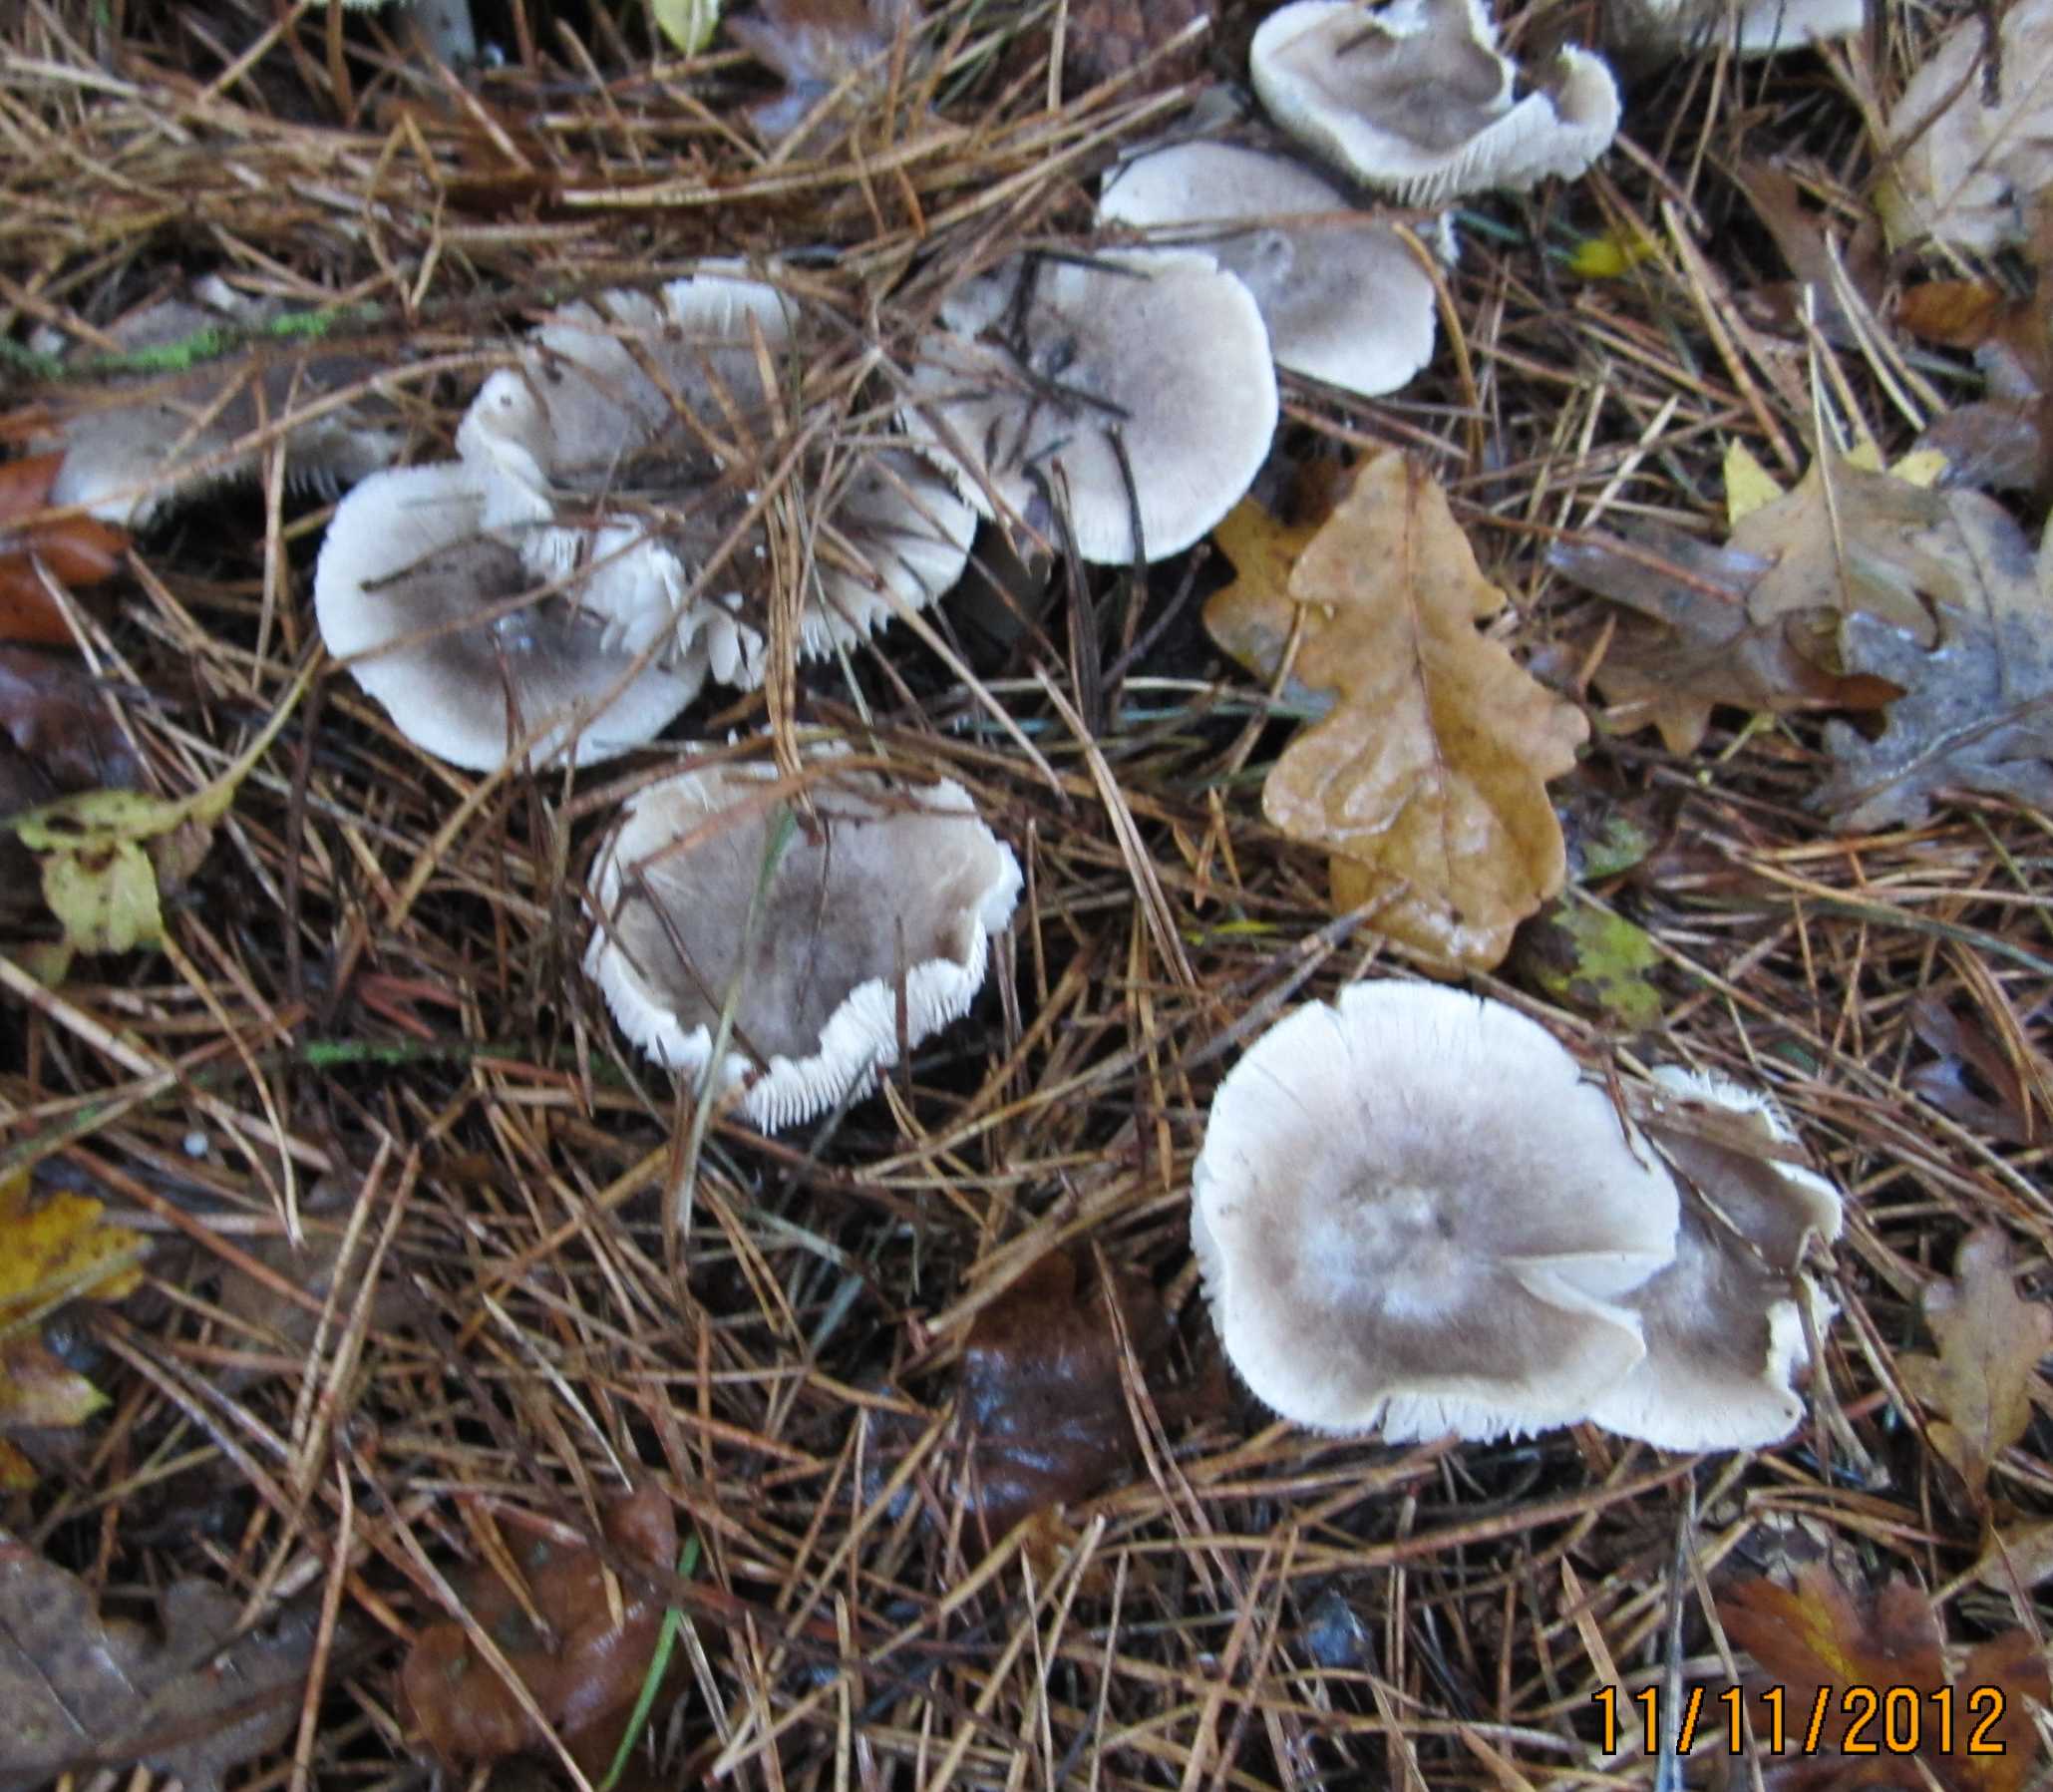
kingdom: Fungi
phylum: Basidiomycota
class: Agaricomycetes
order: Agaricales
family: Tricholomataceae
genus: Tricholoma
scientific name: Tricholoma terreum
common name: jordfarvet ridderhat
